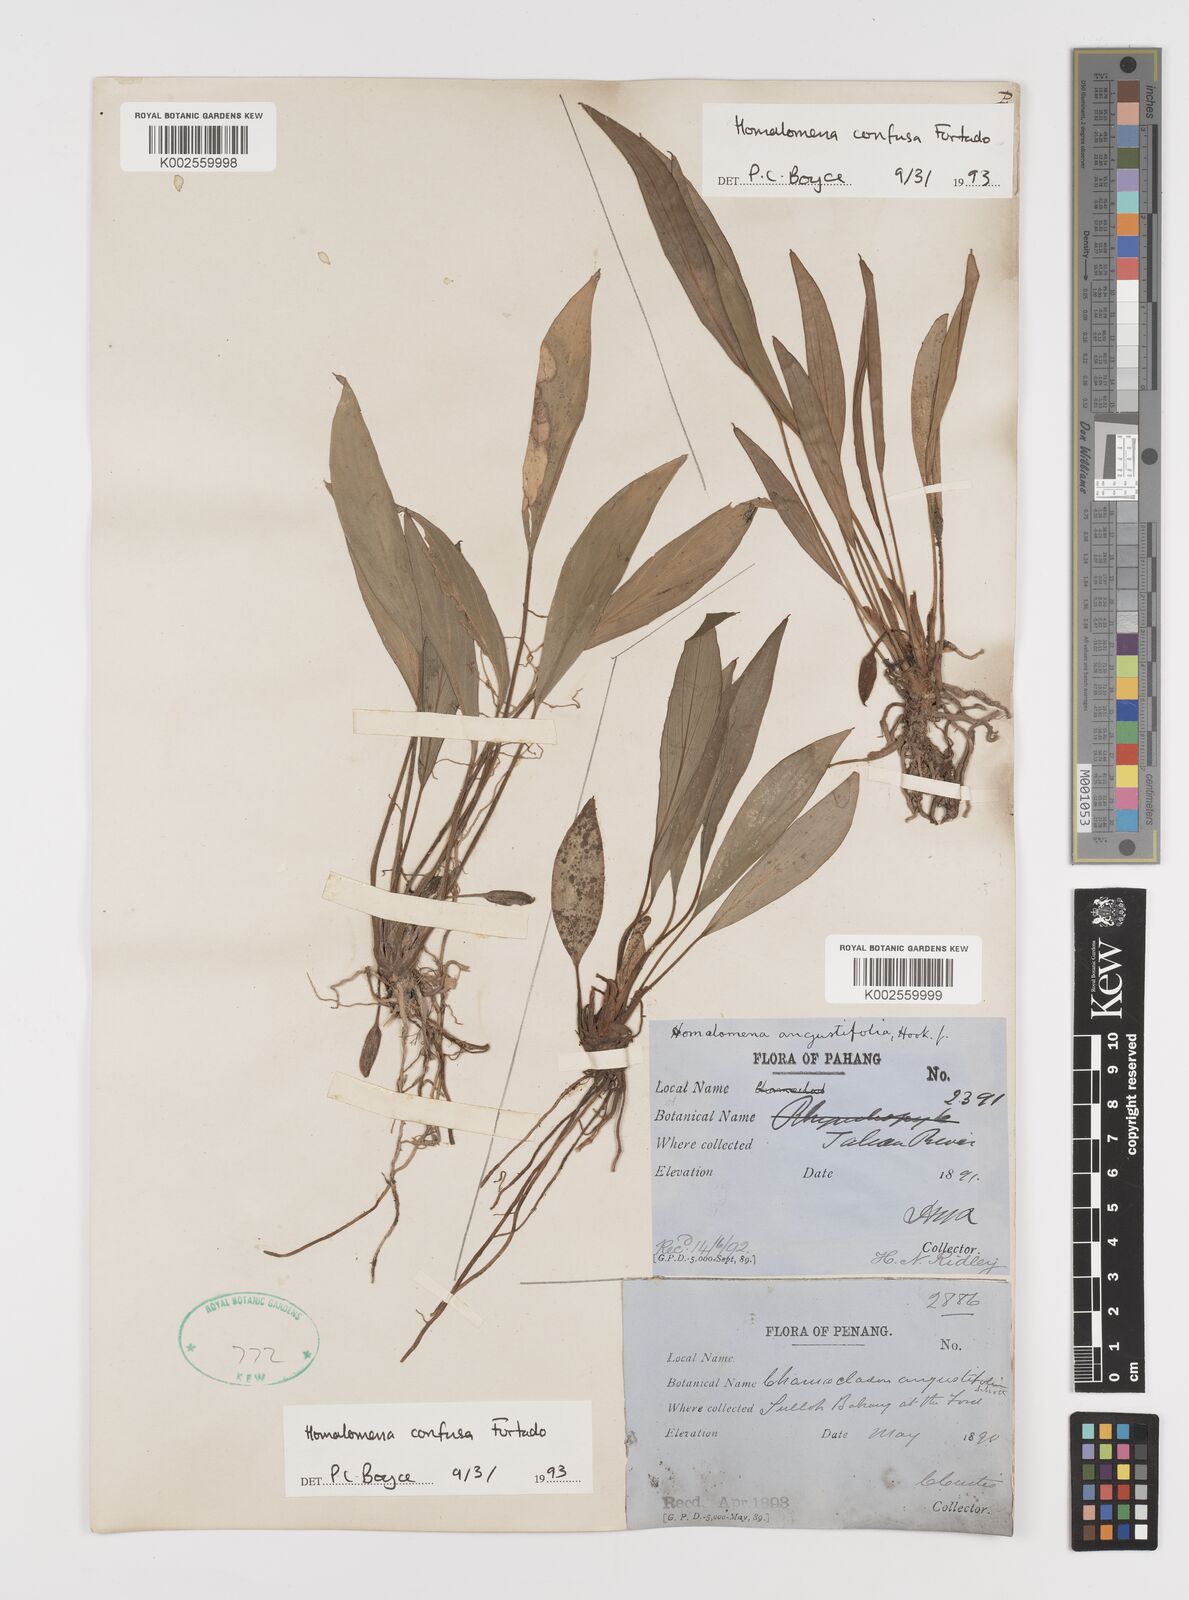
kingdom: Plantae
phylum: Tracheophyta
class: Liliopsida
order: Alismatales
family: Araceae
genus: Homalomena
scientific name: Homalomena confusa
